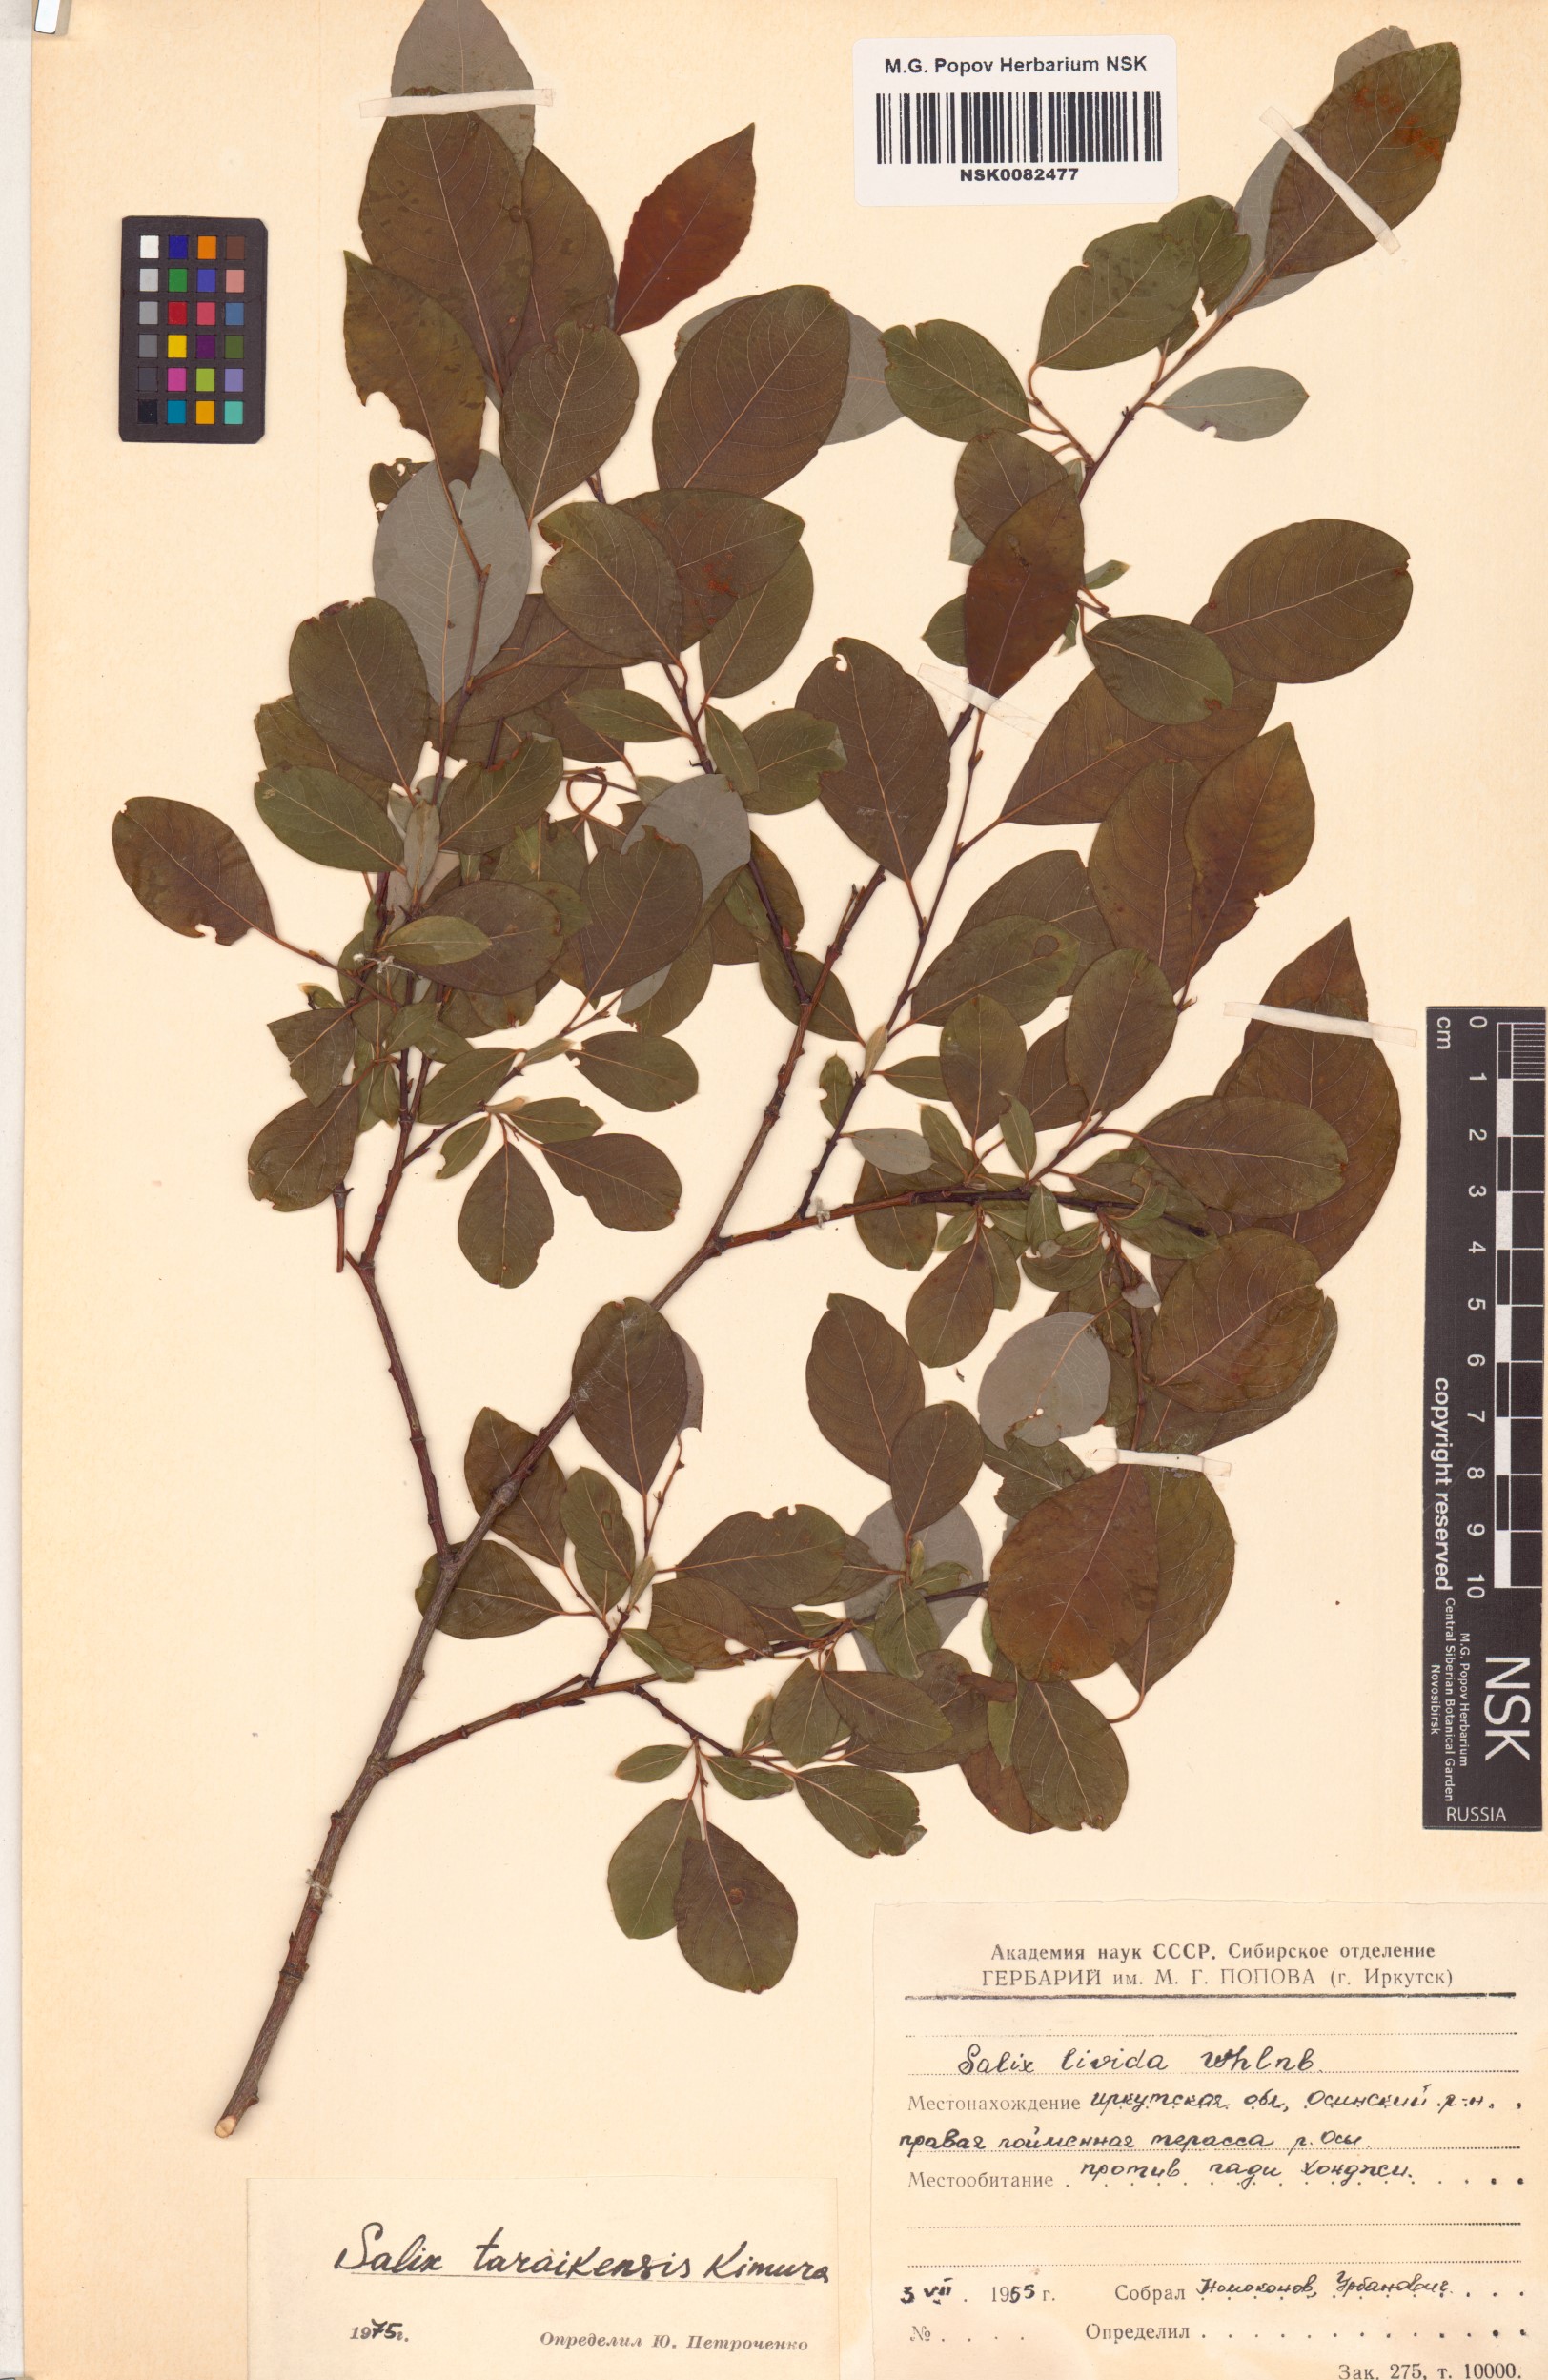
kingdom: Plantae
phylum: Tracheophyta
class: Magnoliopsida
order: Malpighiales
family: Salicaceae
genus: Salix
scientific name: Salix taraikensis
